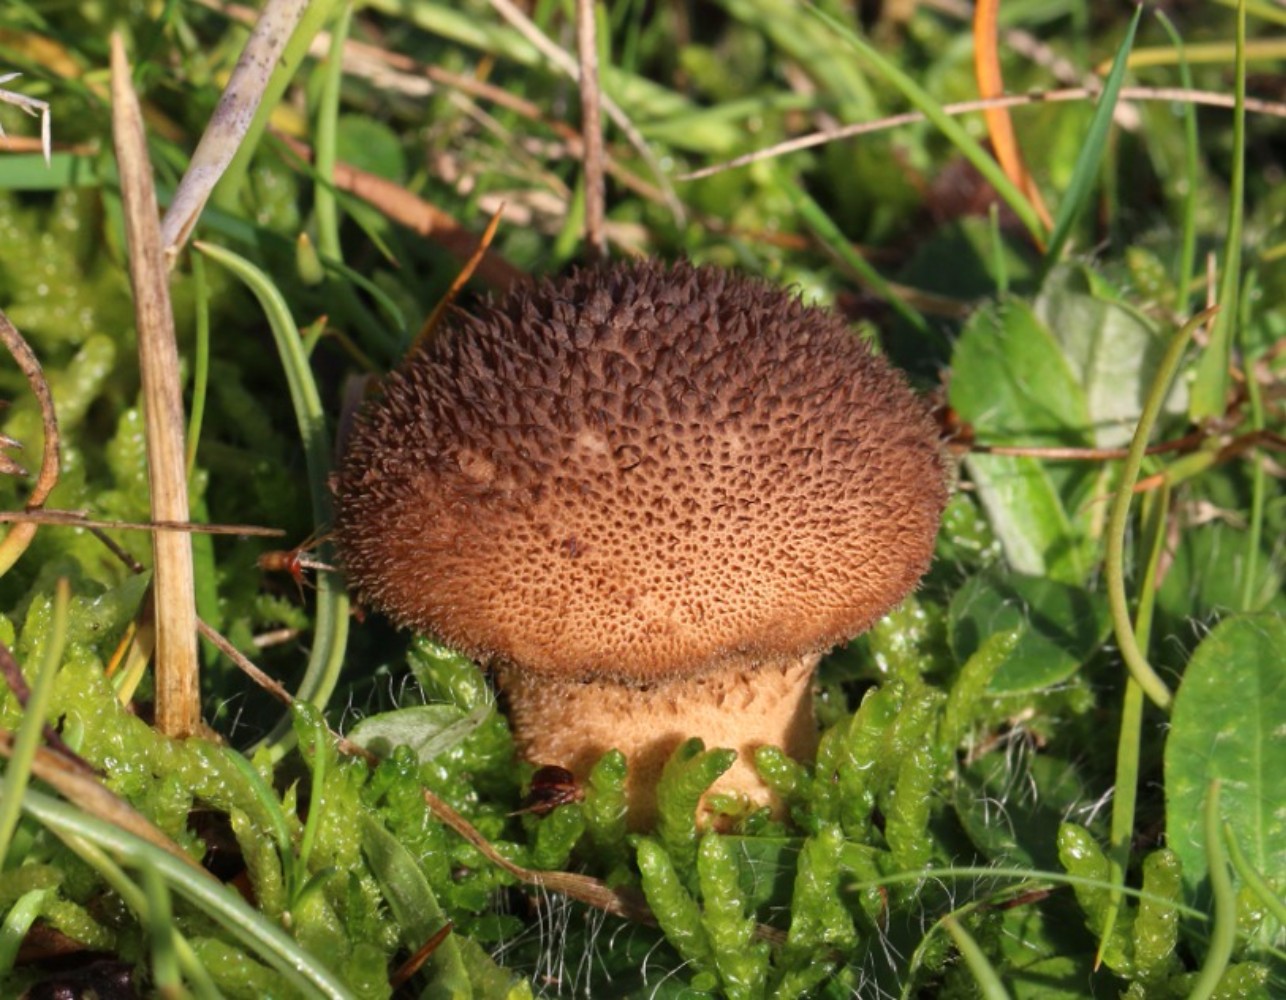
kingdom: Fungi
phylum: Basidiomycota
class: Agaricomycetes
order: Agaricales
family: Lycoperdaceae
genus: Lycoperdon
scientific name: Lycoperdon nigrescens
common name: sortagtig støvbold
